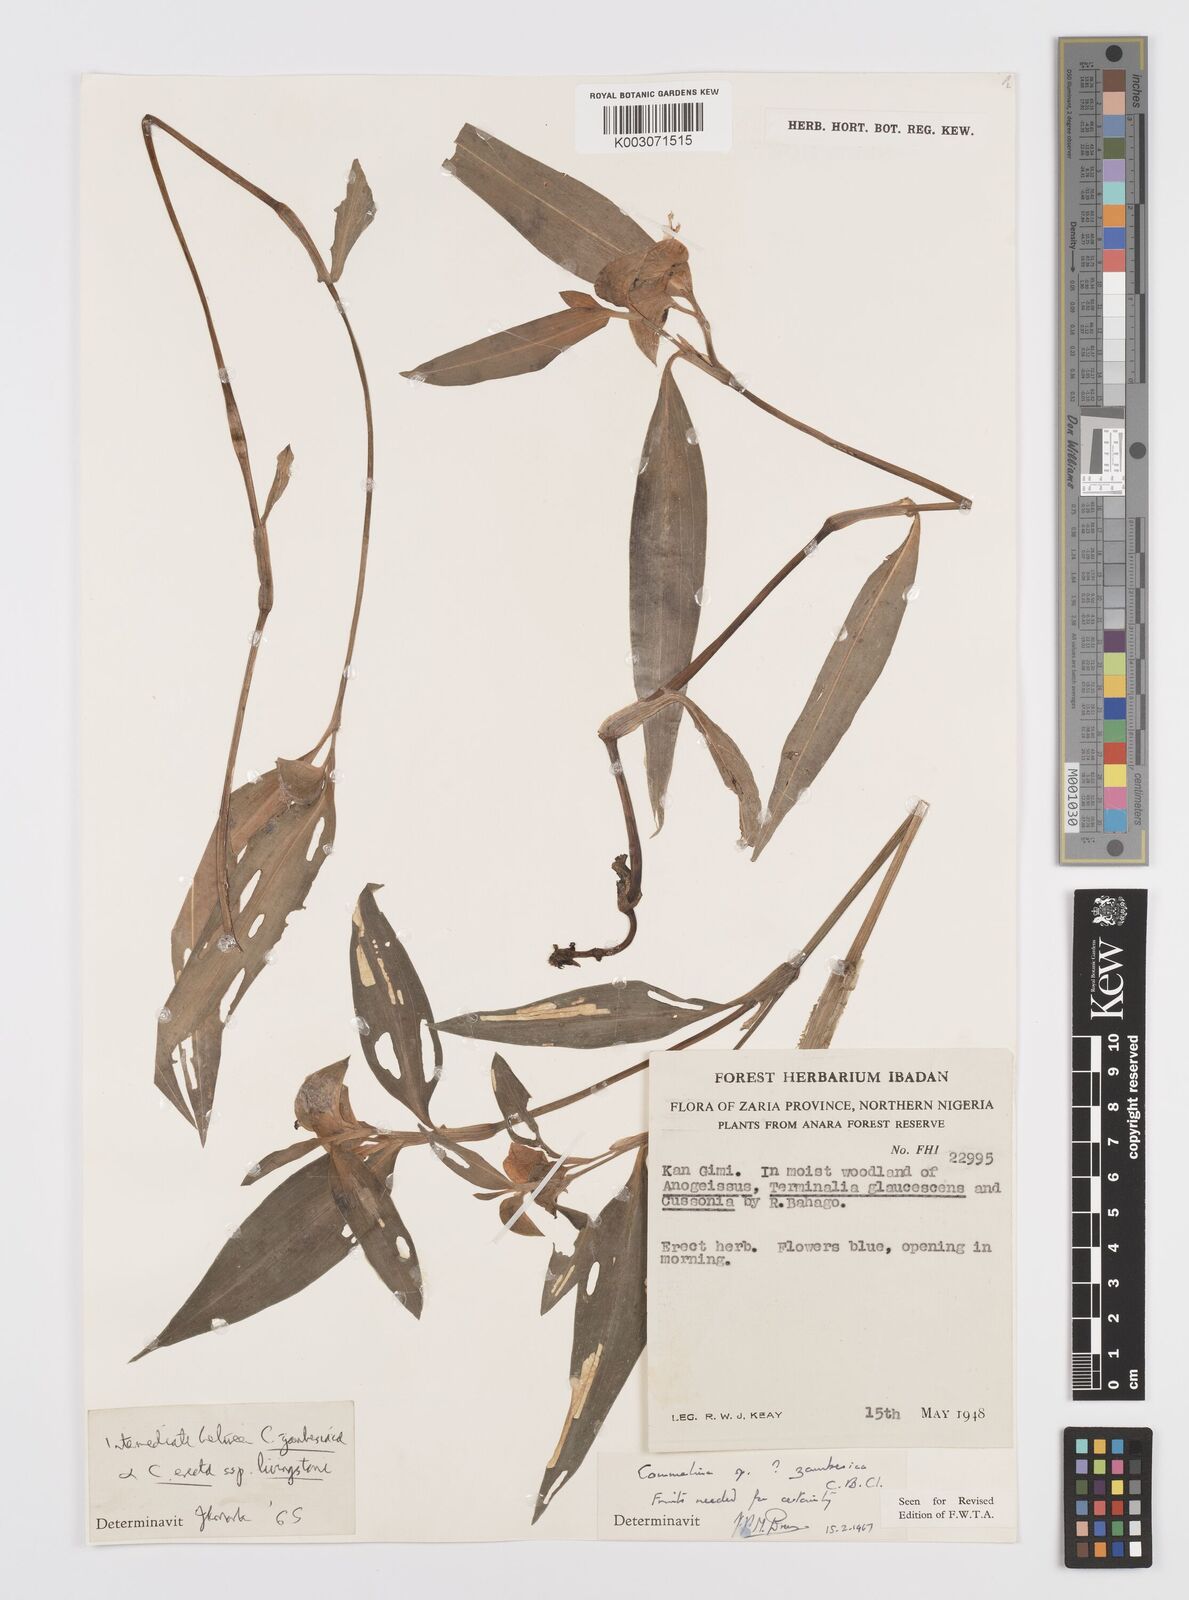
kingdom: Plantae
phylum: Tracheophyta
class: Liliopsida
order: Commelinales
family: Commelinaceae
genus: Commelina
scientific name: Commelina zambesica
